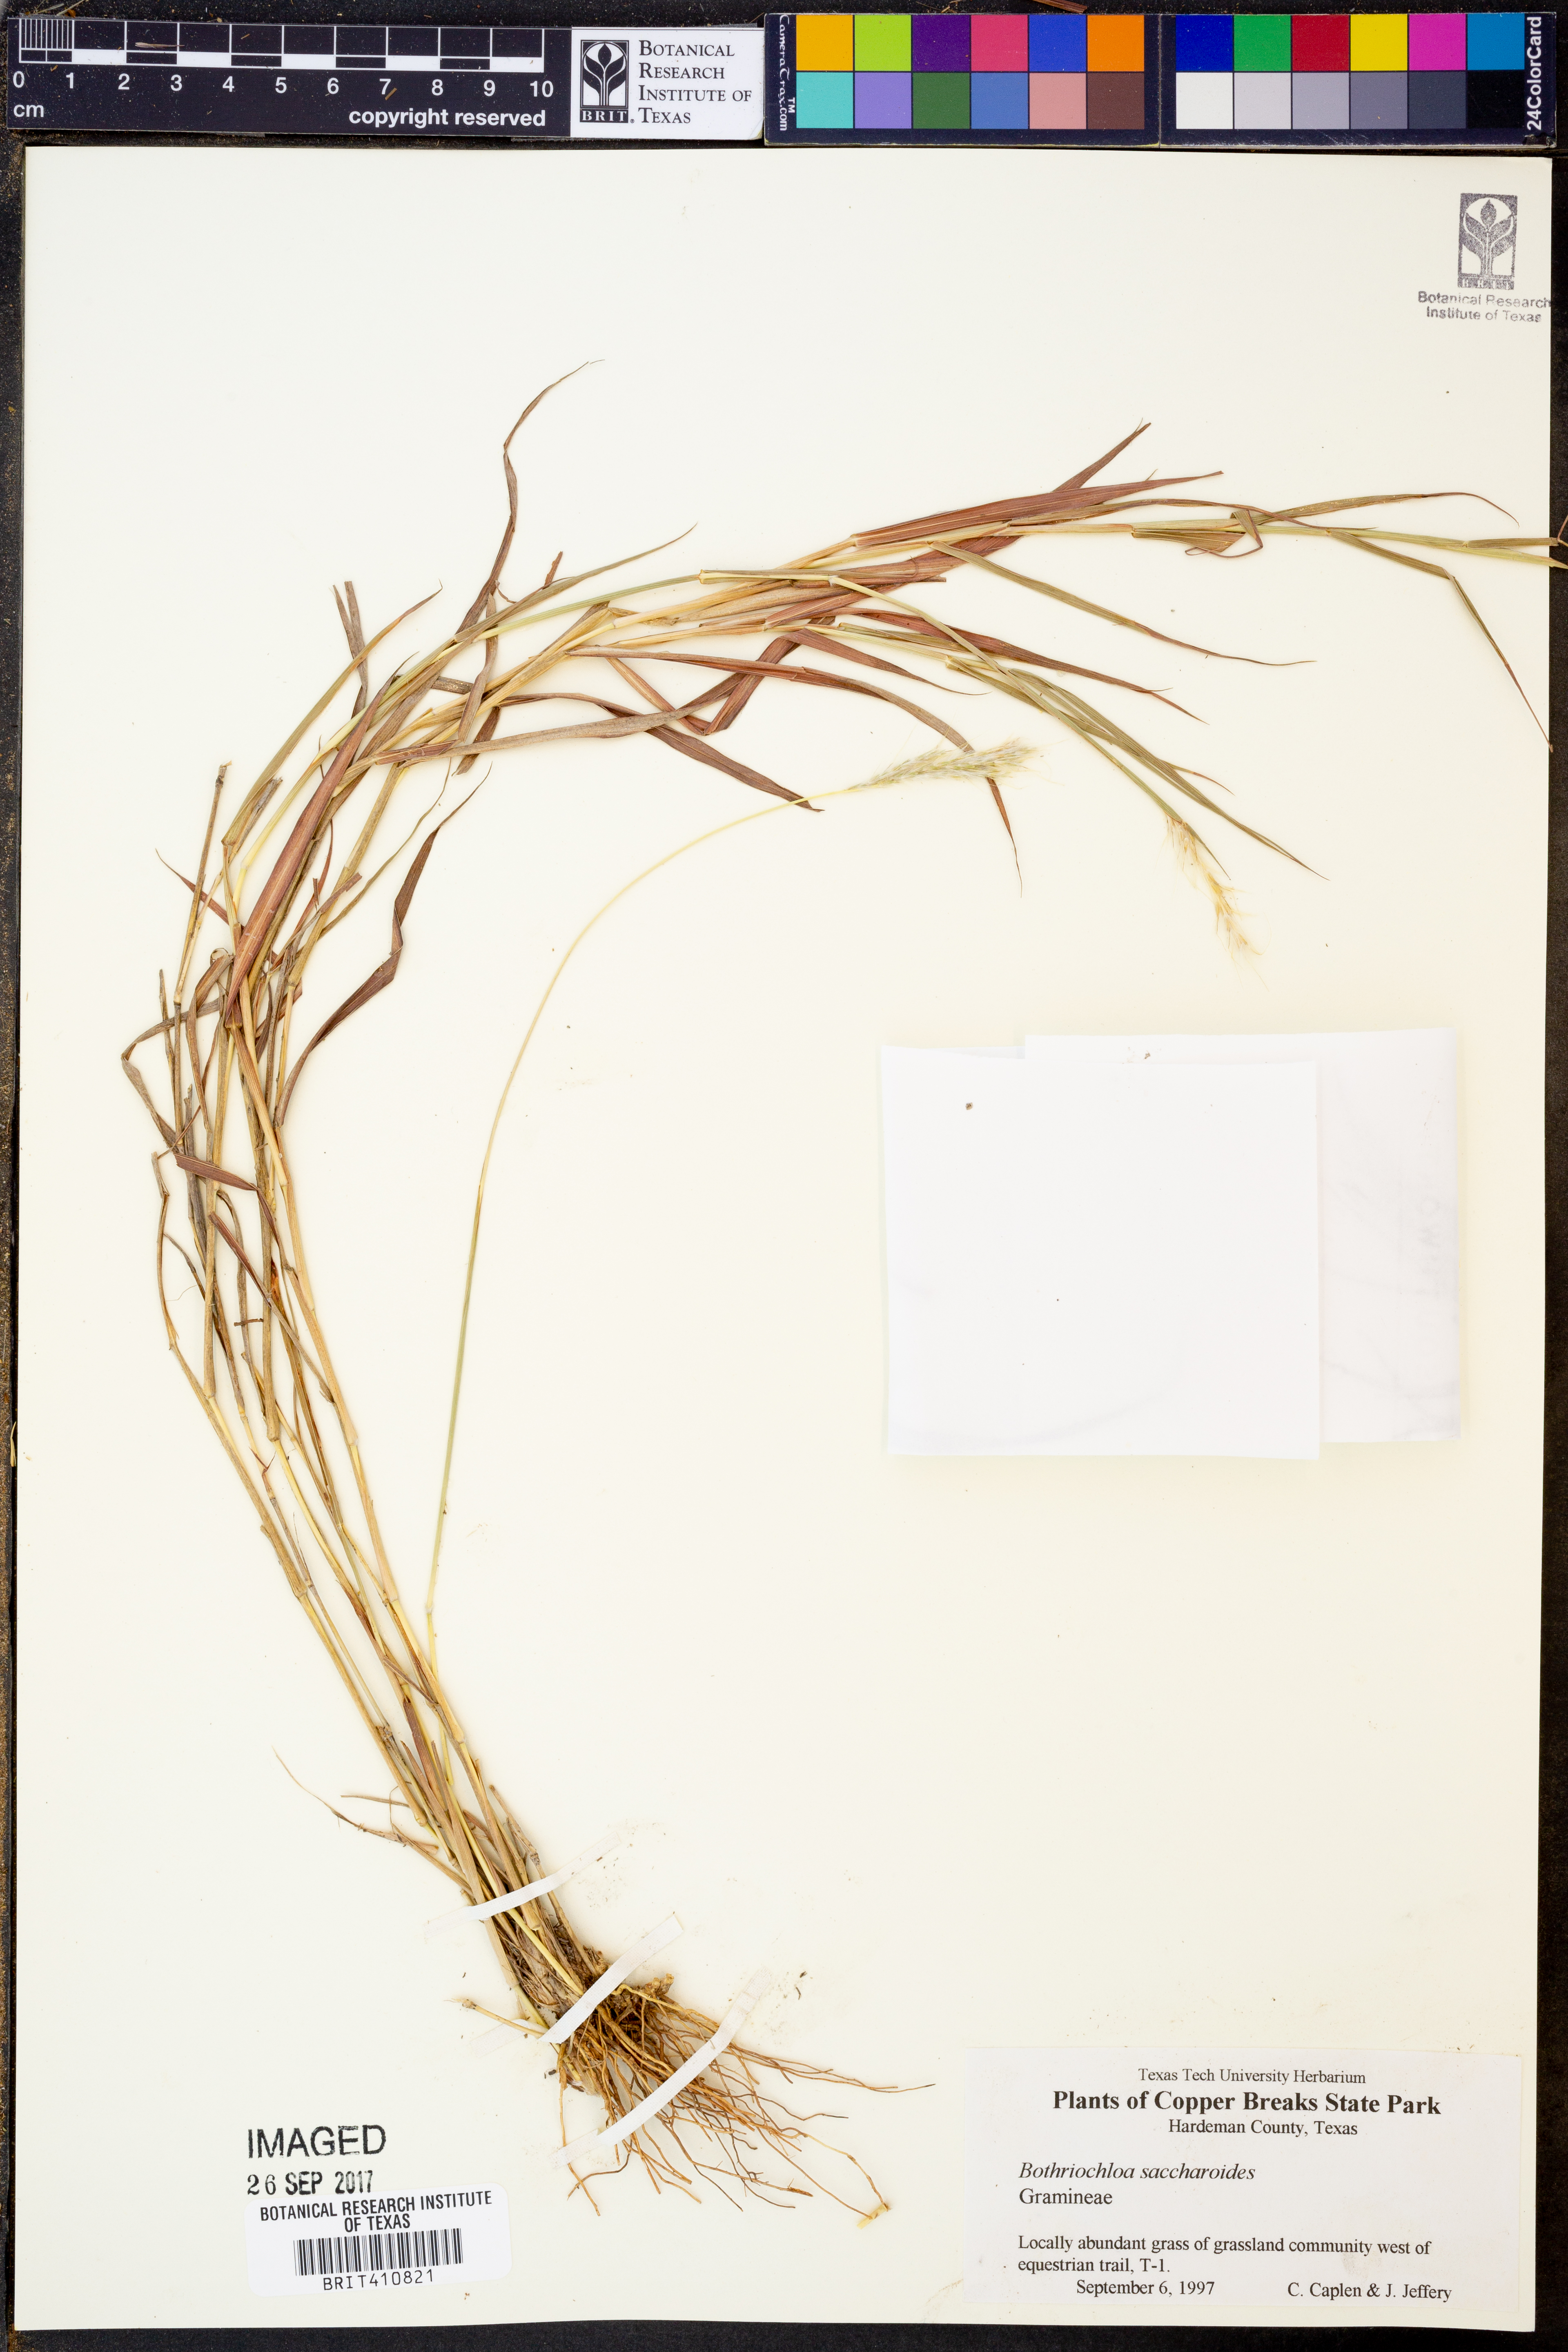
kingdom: Plantae
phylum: Tracheophyta
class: Liliopsida
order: Poales
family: Poaceae
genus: Bothriochloa
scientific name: Bothriochloa saccharoides
